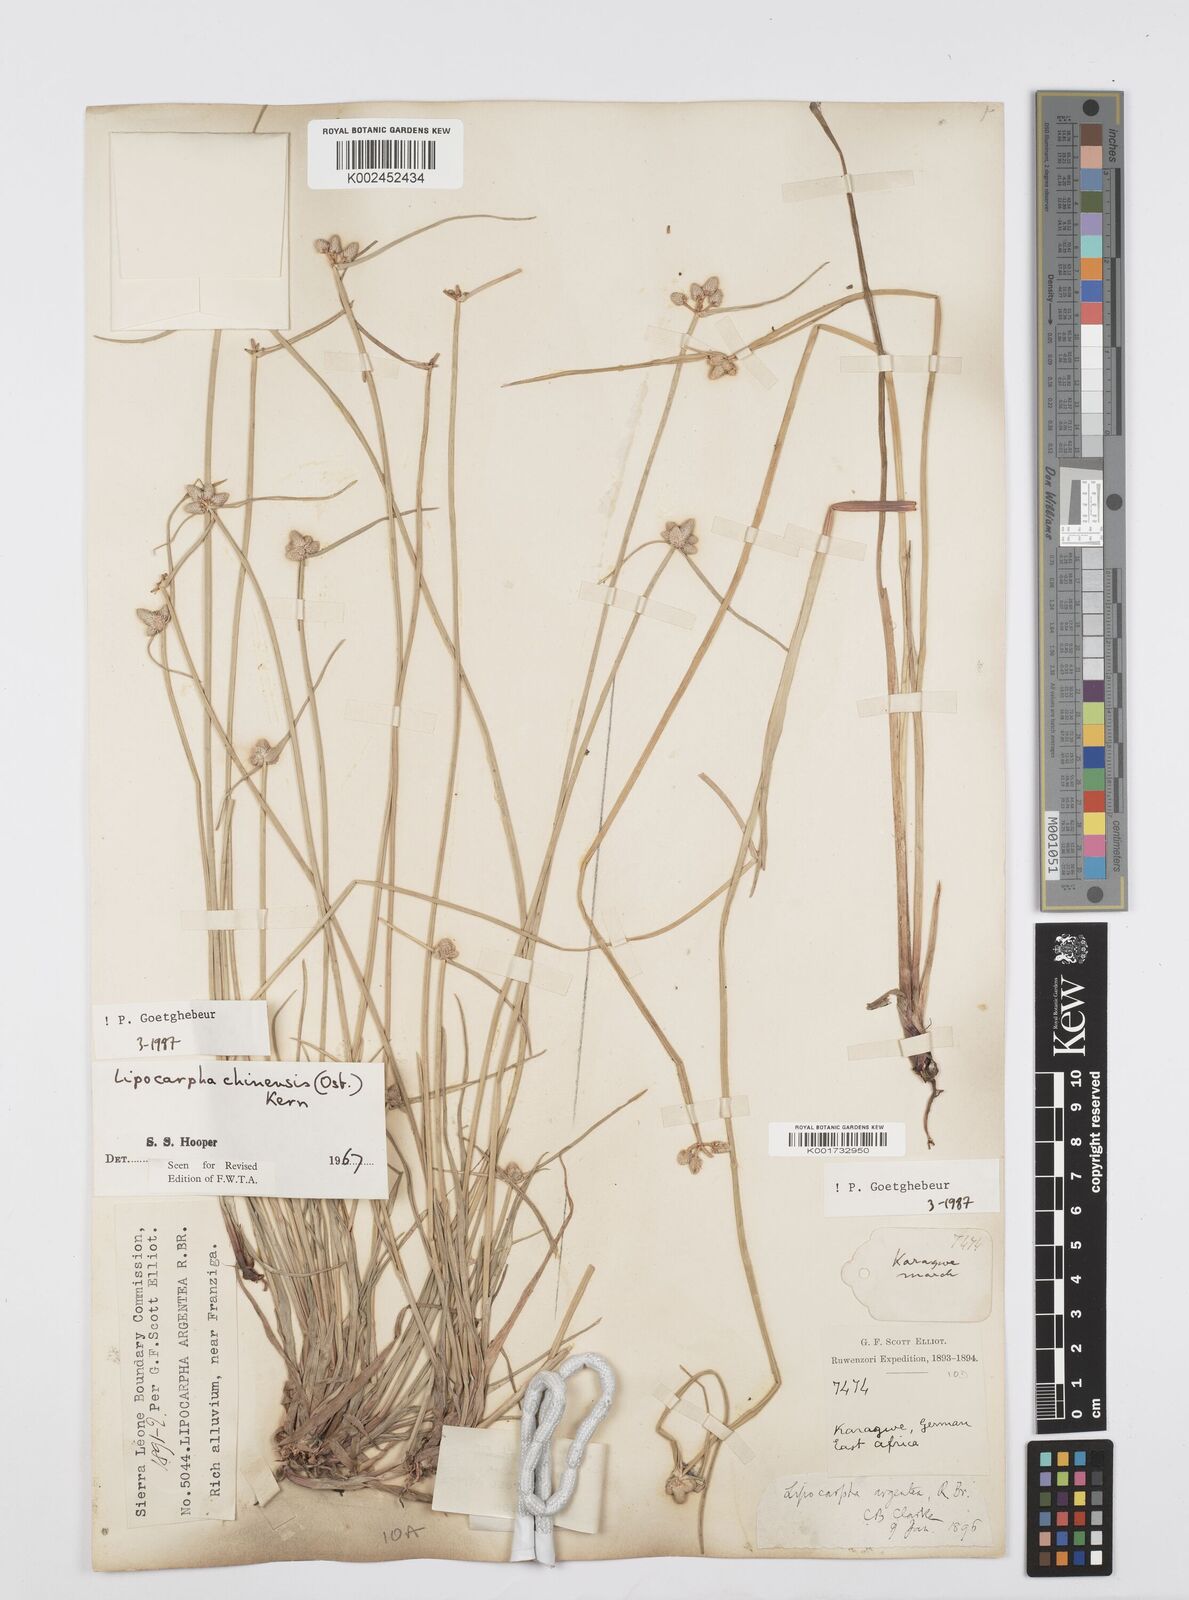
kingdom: Plantae
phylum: Tracheophyta
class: Liliopsida
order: Poales
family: Cyperaceae
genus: Cyperus
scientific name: Cyperus albescens
